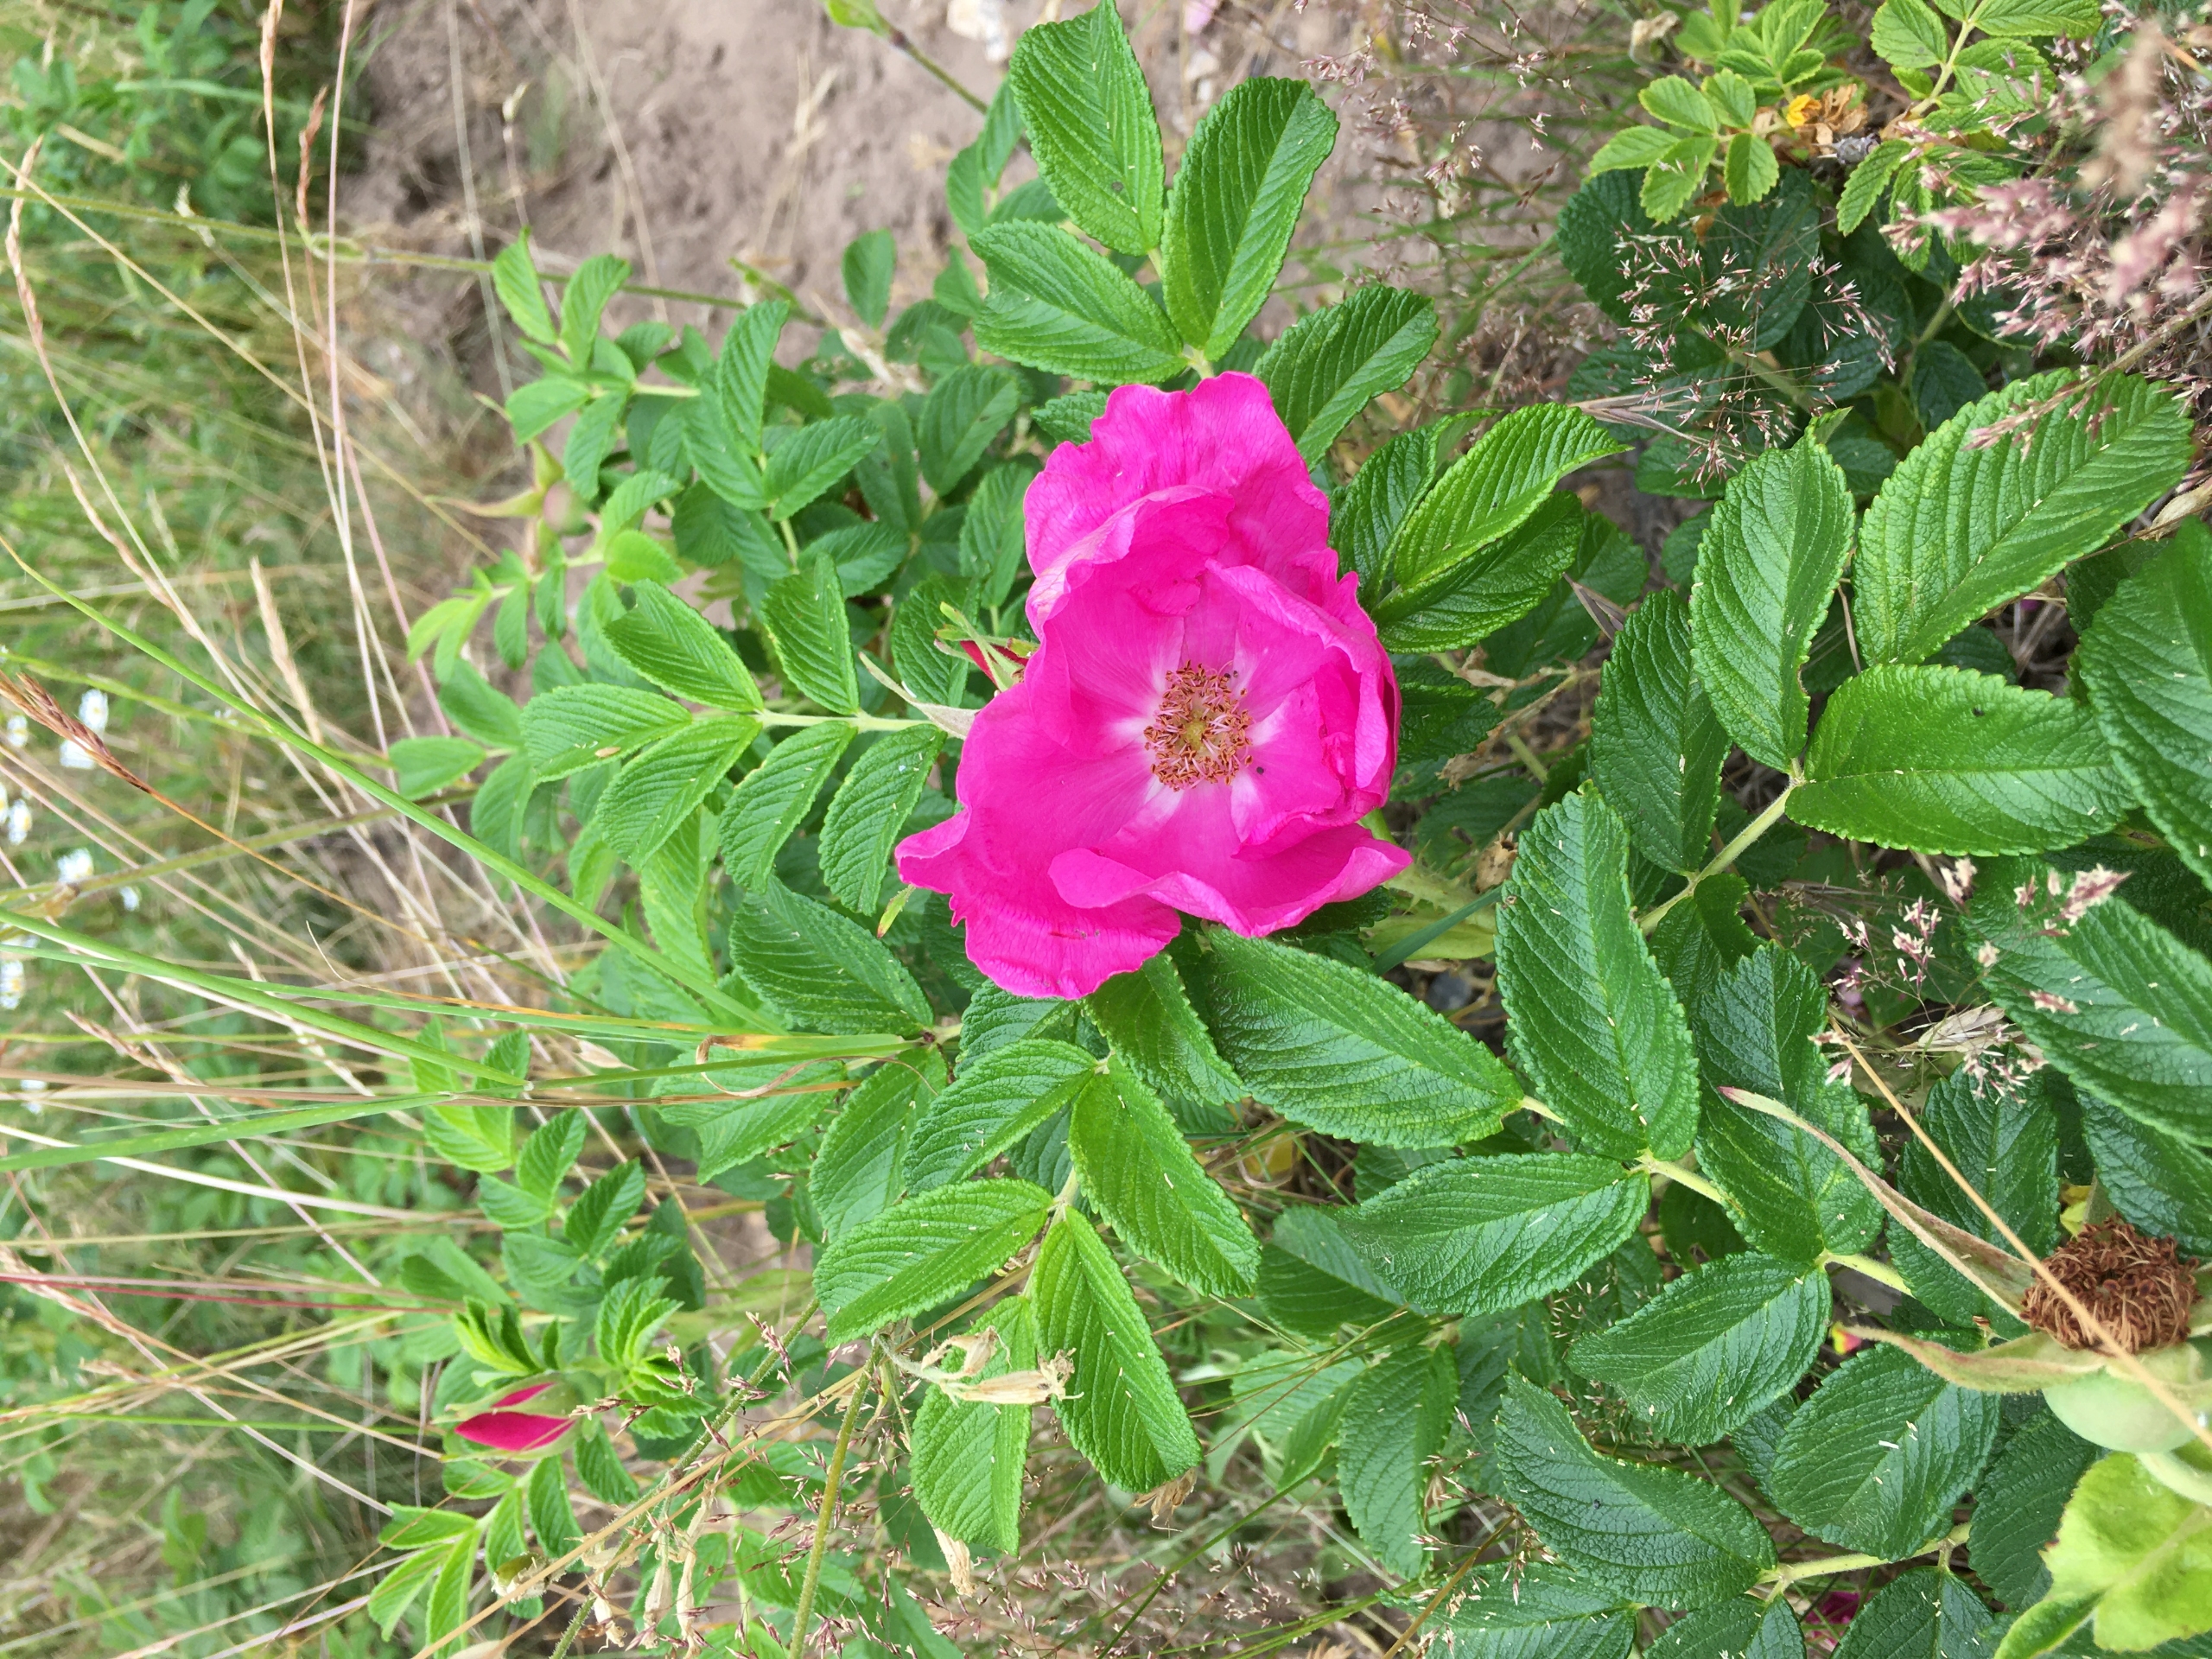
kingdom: Plantae
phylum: Tracheophyta
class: Magnoliopsida
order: Rosales
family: Rosaceae
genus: Rosa
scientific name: Rosa rugosa
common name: Rynket rose
